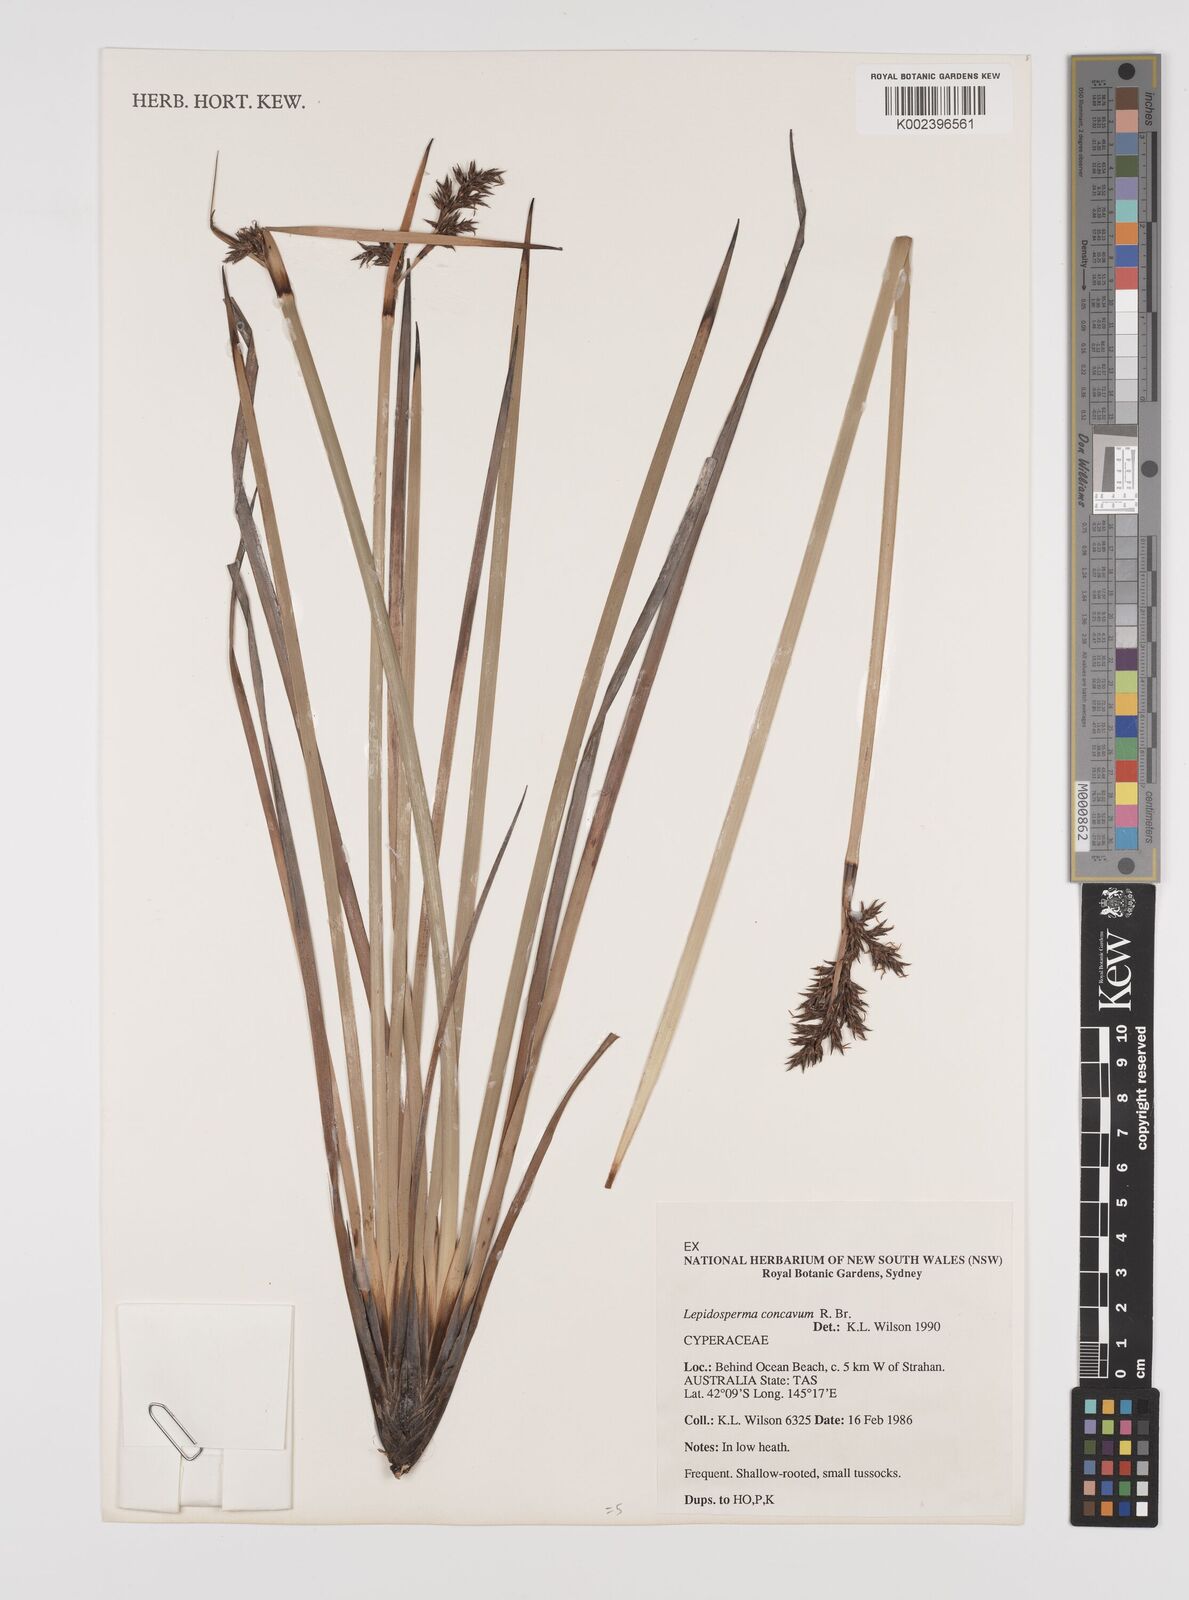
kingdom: Plantae
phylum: Tracheophyta
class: Liliopsida
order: Poales
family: Cyperaceae
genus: Lepidosperma
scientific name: Lepidosperma concavum
